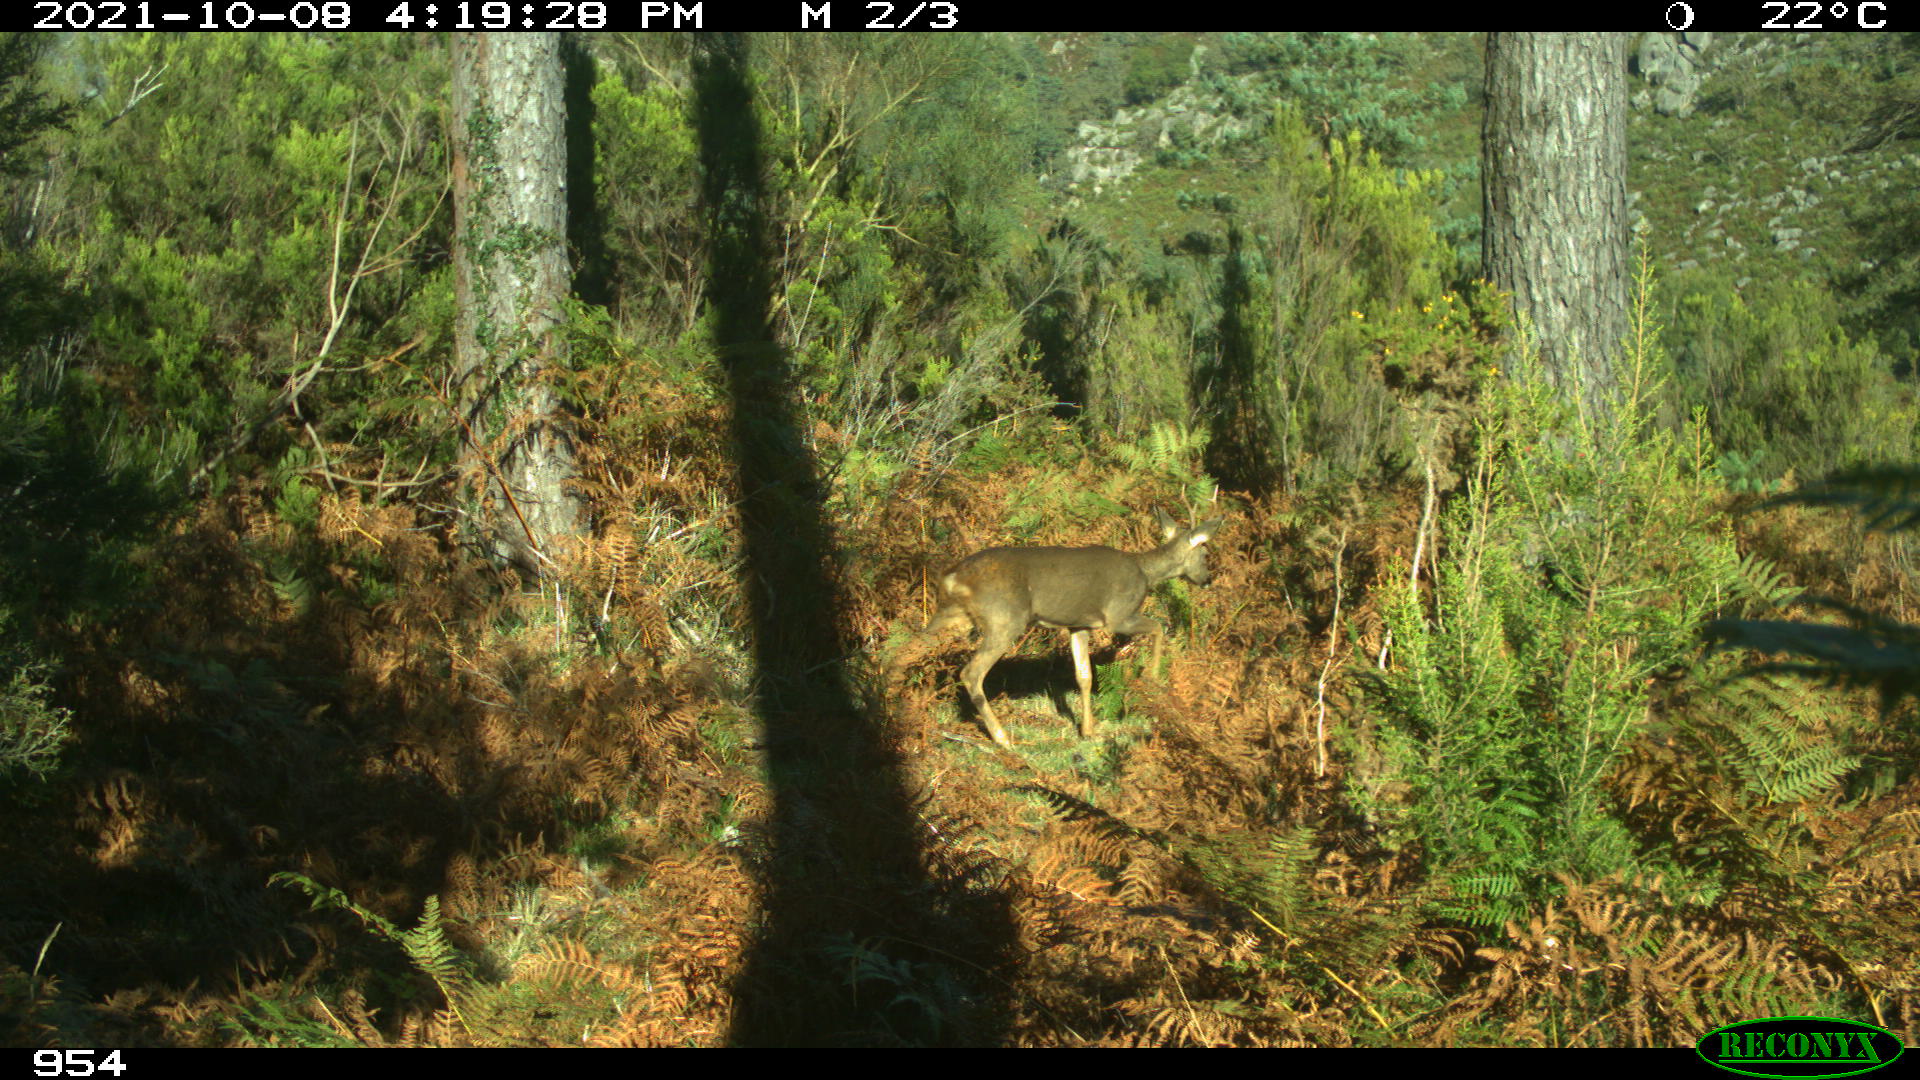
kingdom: Animalia
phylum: Chordata
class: Mammalia
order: Artiodactyla
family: Cervidae
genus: Capreolus
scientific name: Capreolus capreolus
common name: Western roe deer
